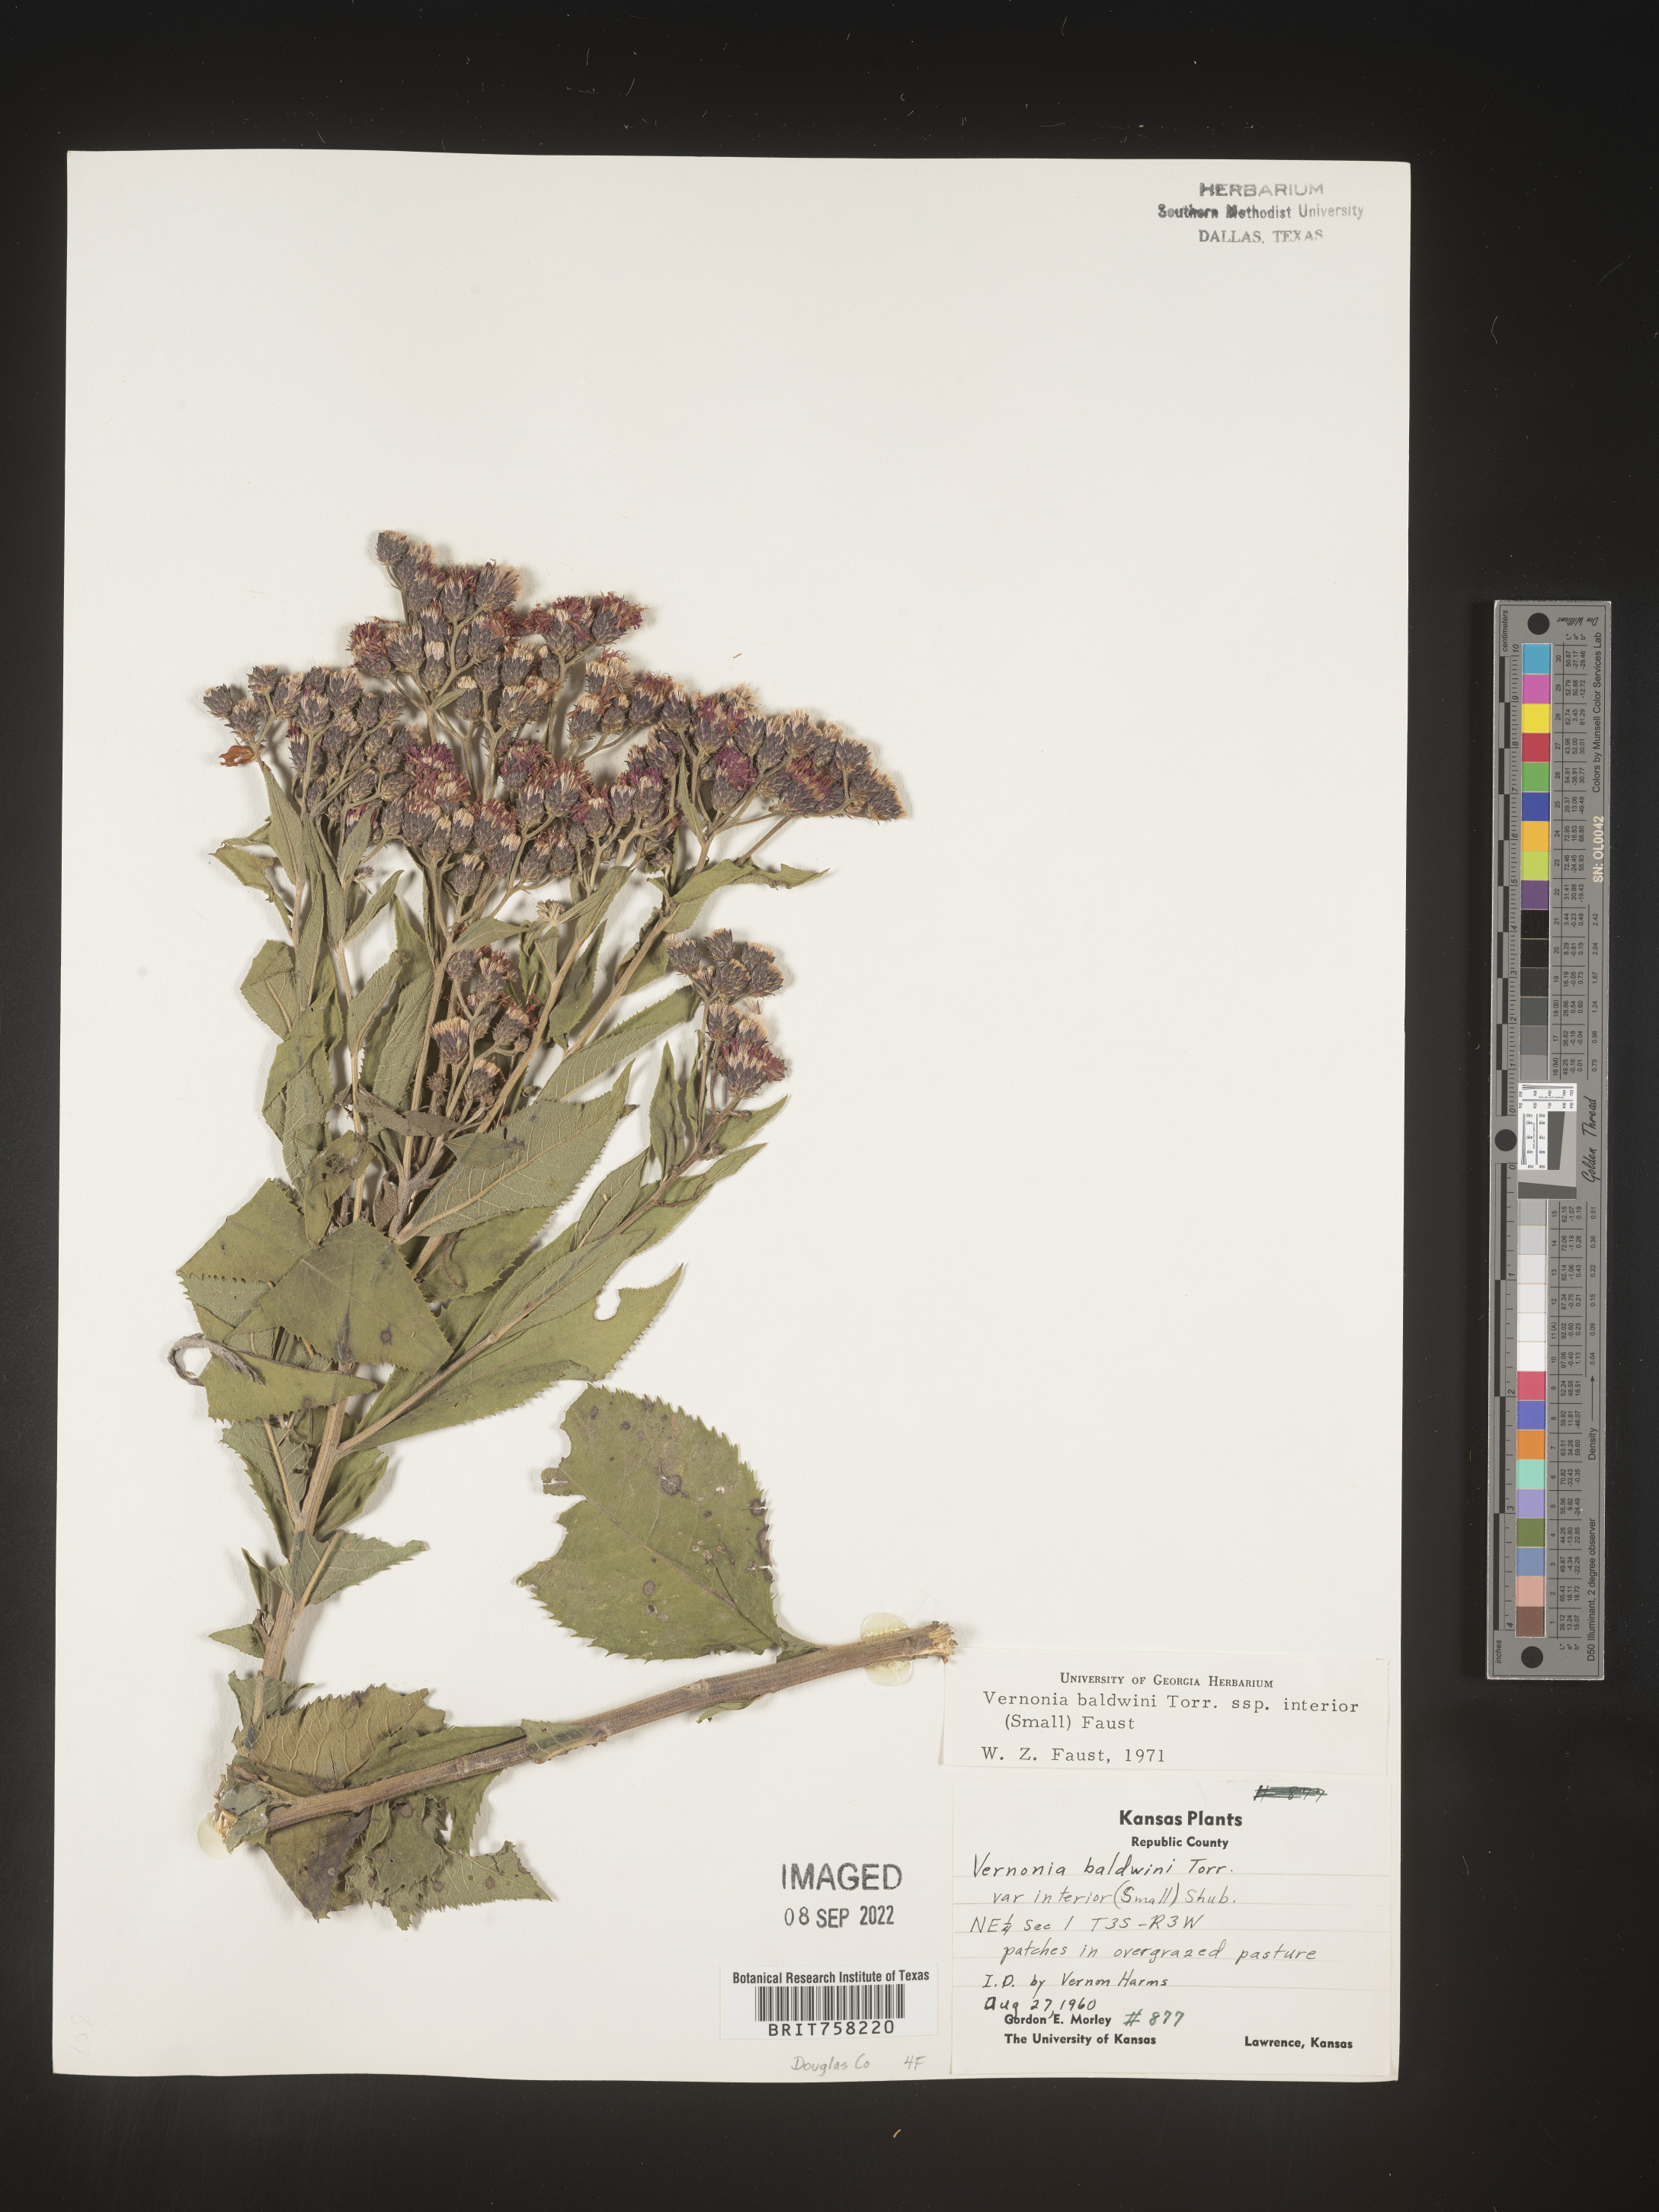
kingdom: Plantae
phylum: Tracheophyta
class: Magnoliopsida
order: Asterales
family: Asteraceae
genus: Vernonia
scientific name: Vernonia baldwinii
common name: Western ironweed
